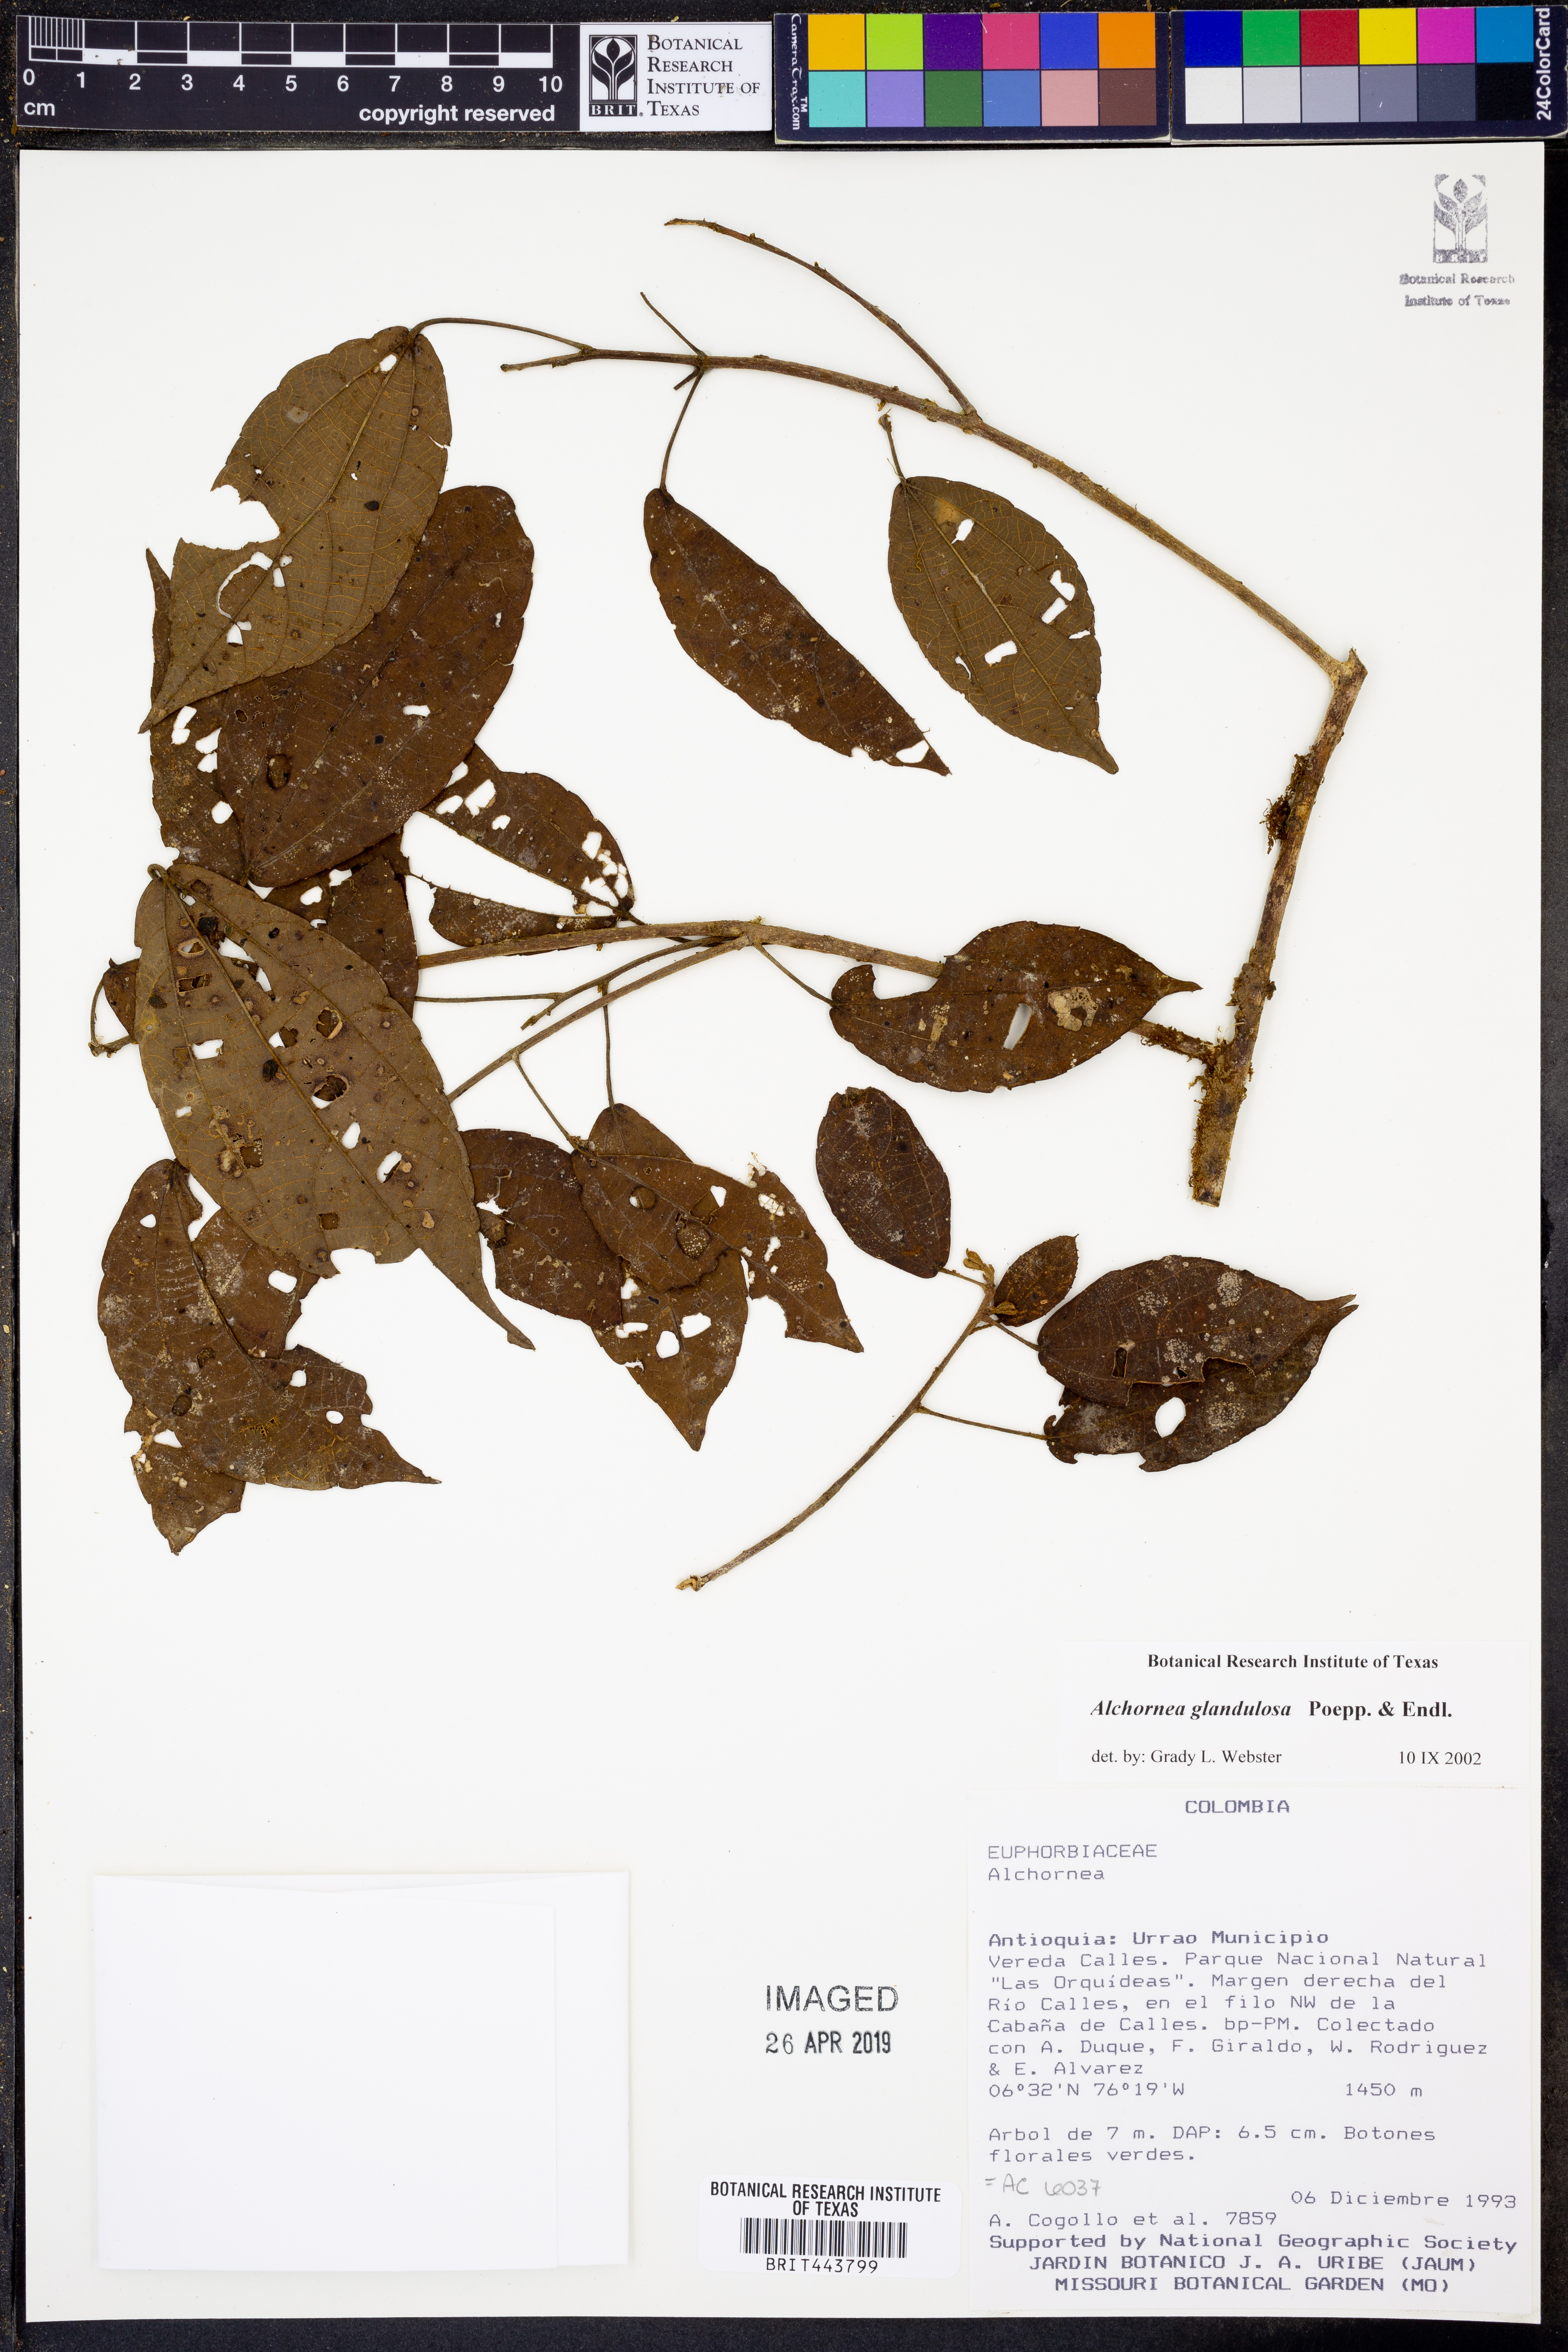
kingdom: Plantae
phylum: Tracheophyta
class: Magnoliopsida
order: Malpighiales
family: Euphorbiaceae
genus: Alchornea
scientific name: Alchornea glandulosa
